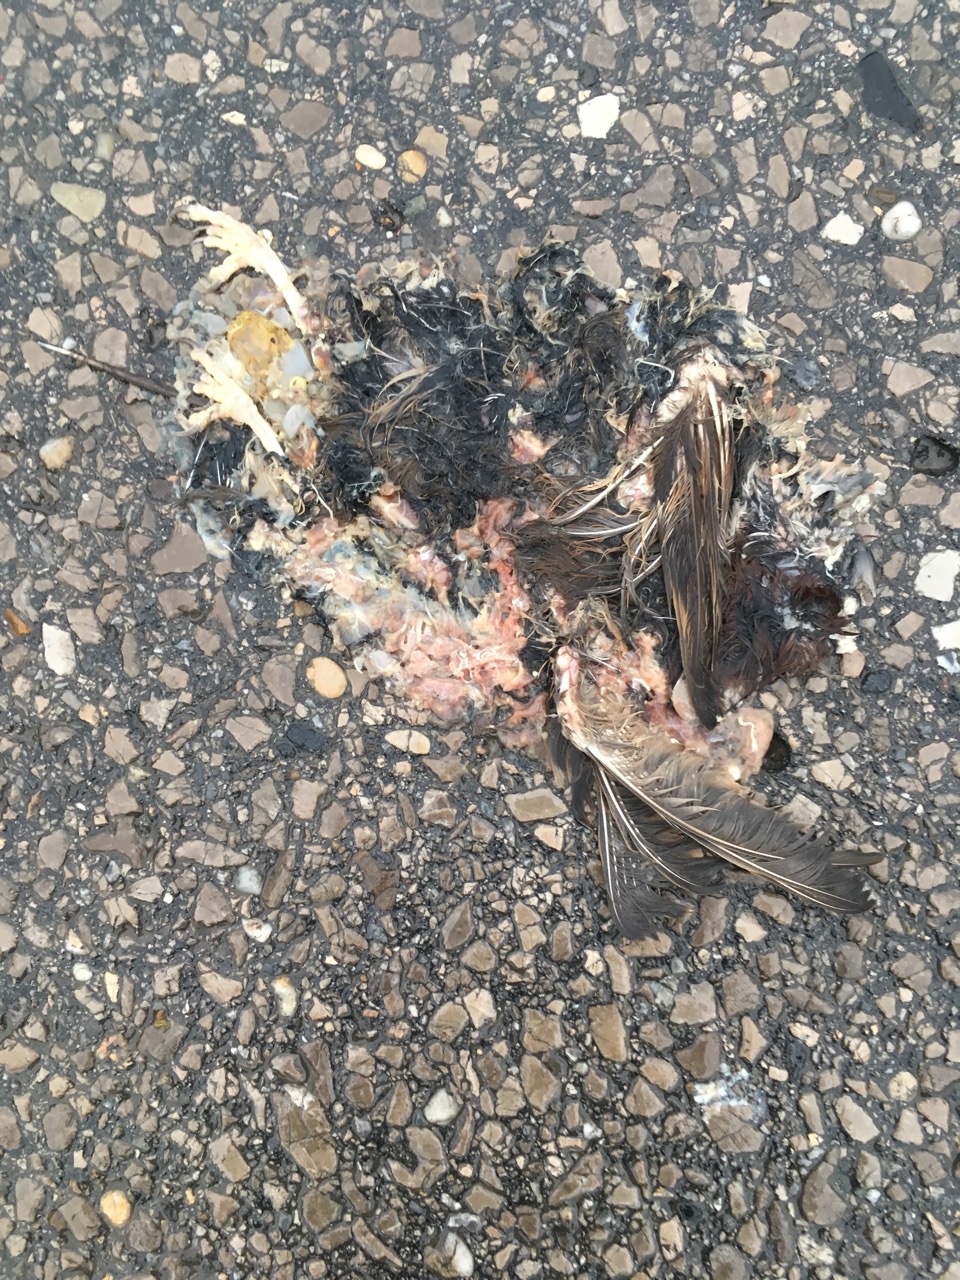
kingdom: Animalia
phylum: Chordata
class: Aves
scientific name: Aves
